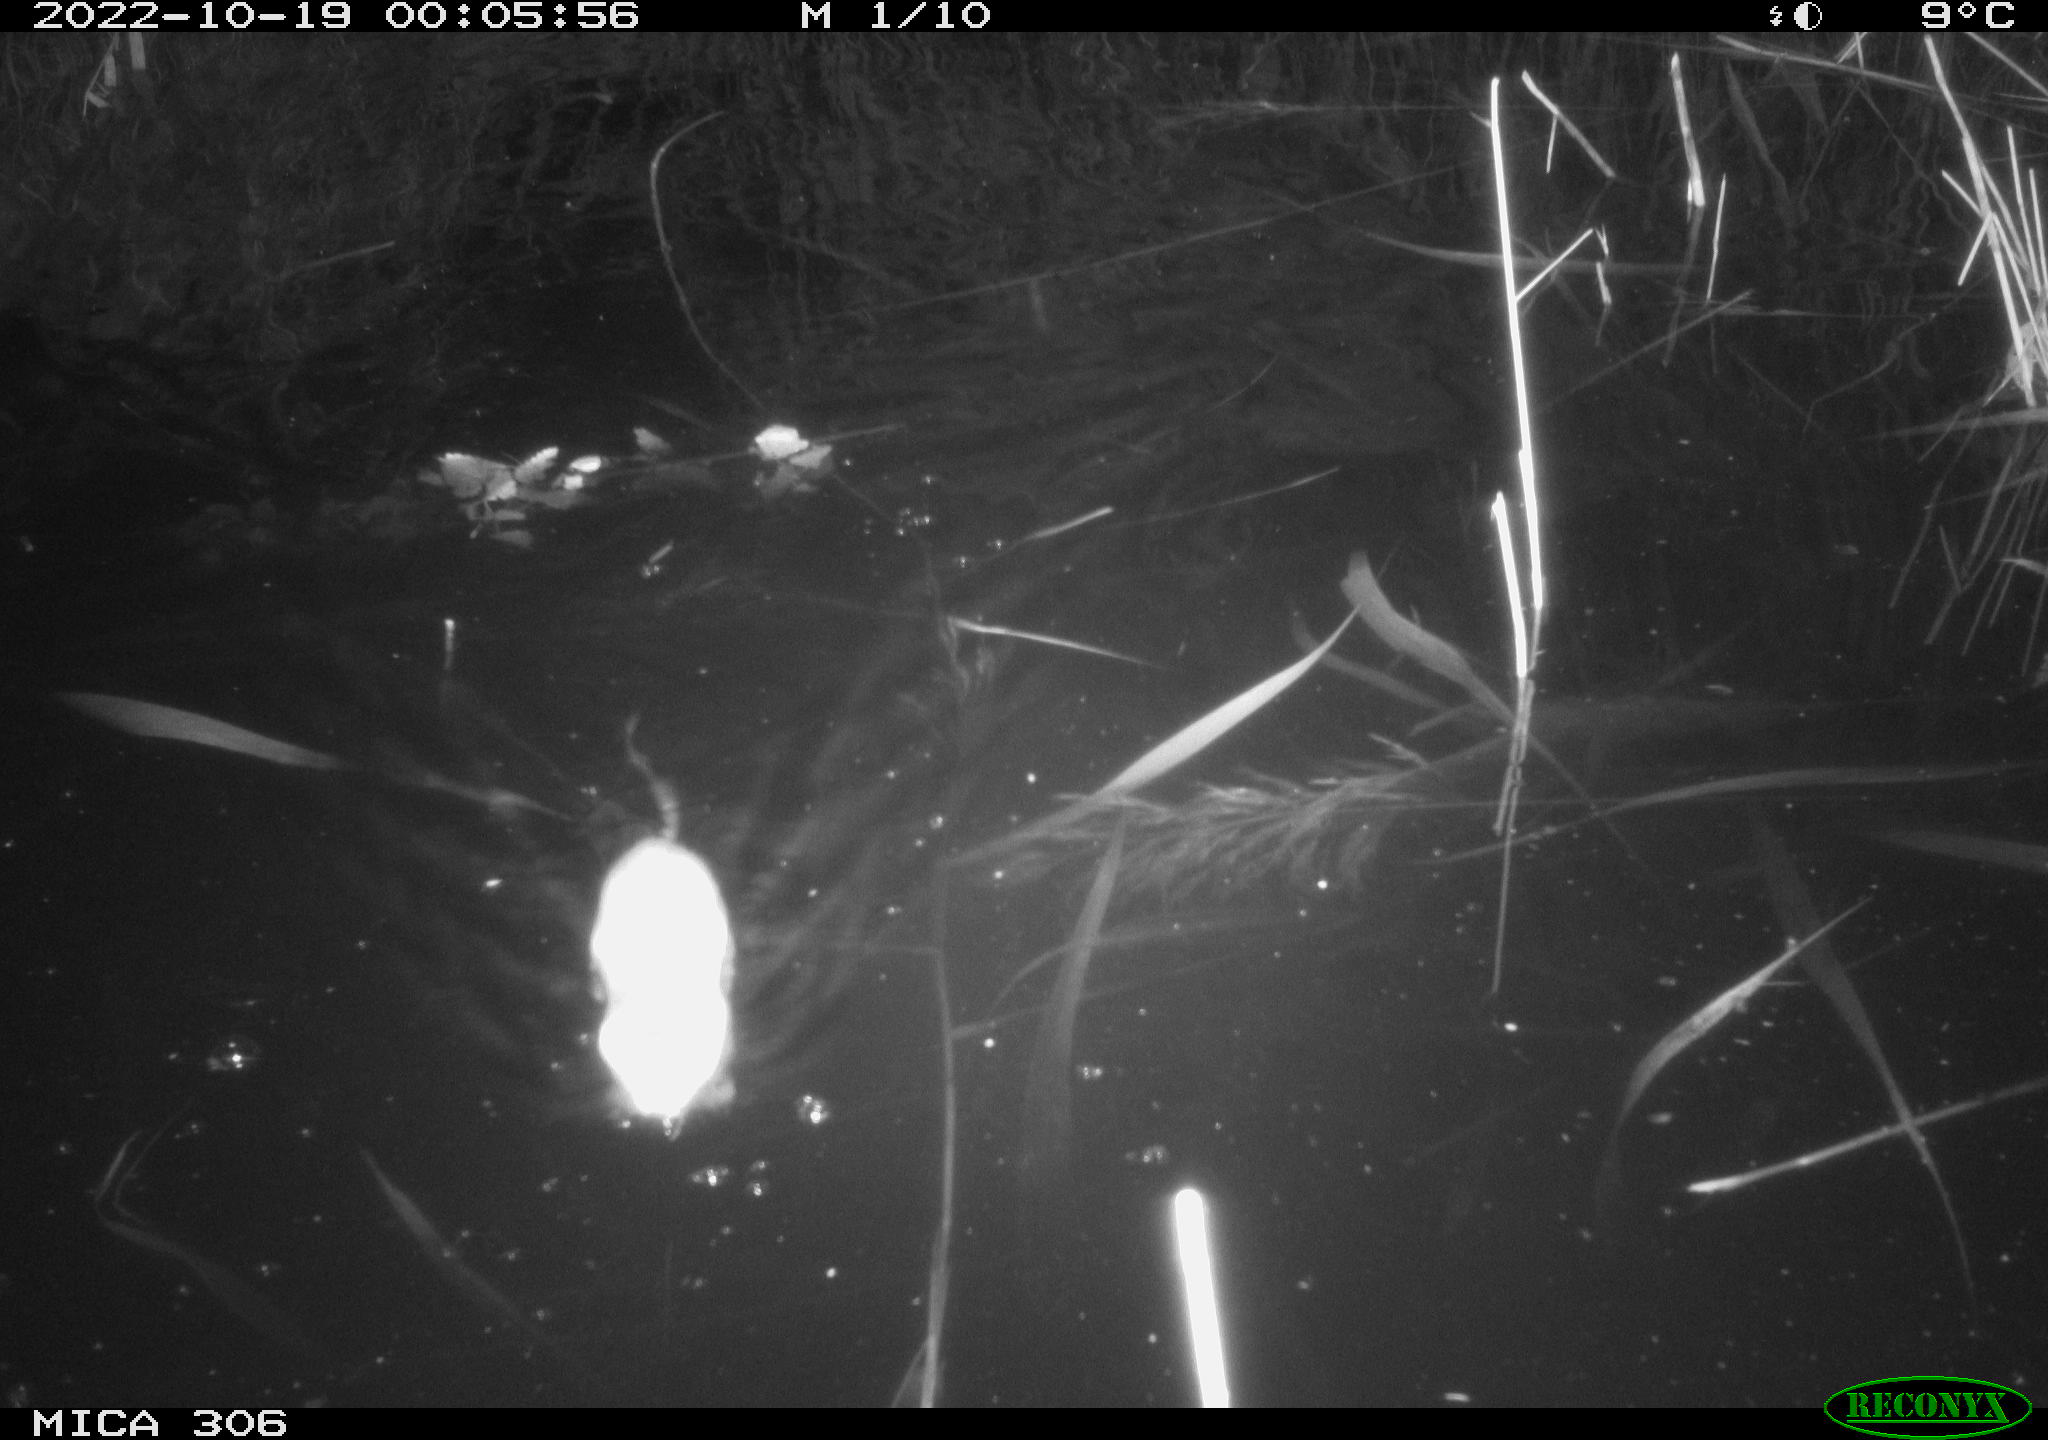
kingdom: Animalia
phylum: Chordata
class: Mammalia
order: Rodentia
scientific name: Rodentia
